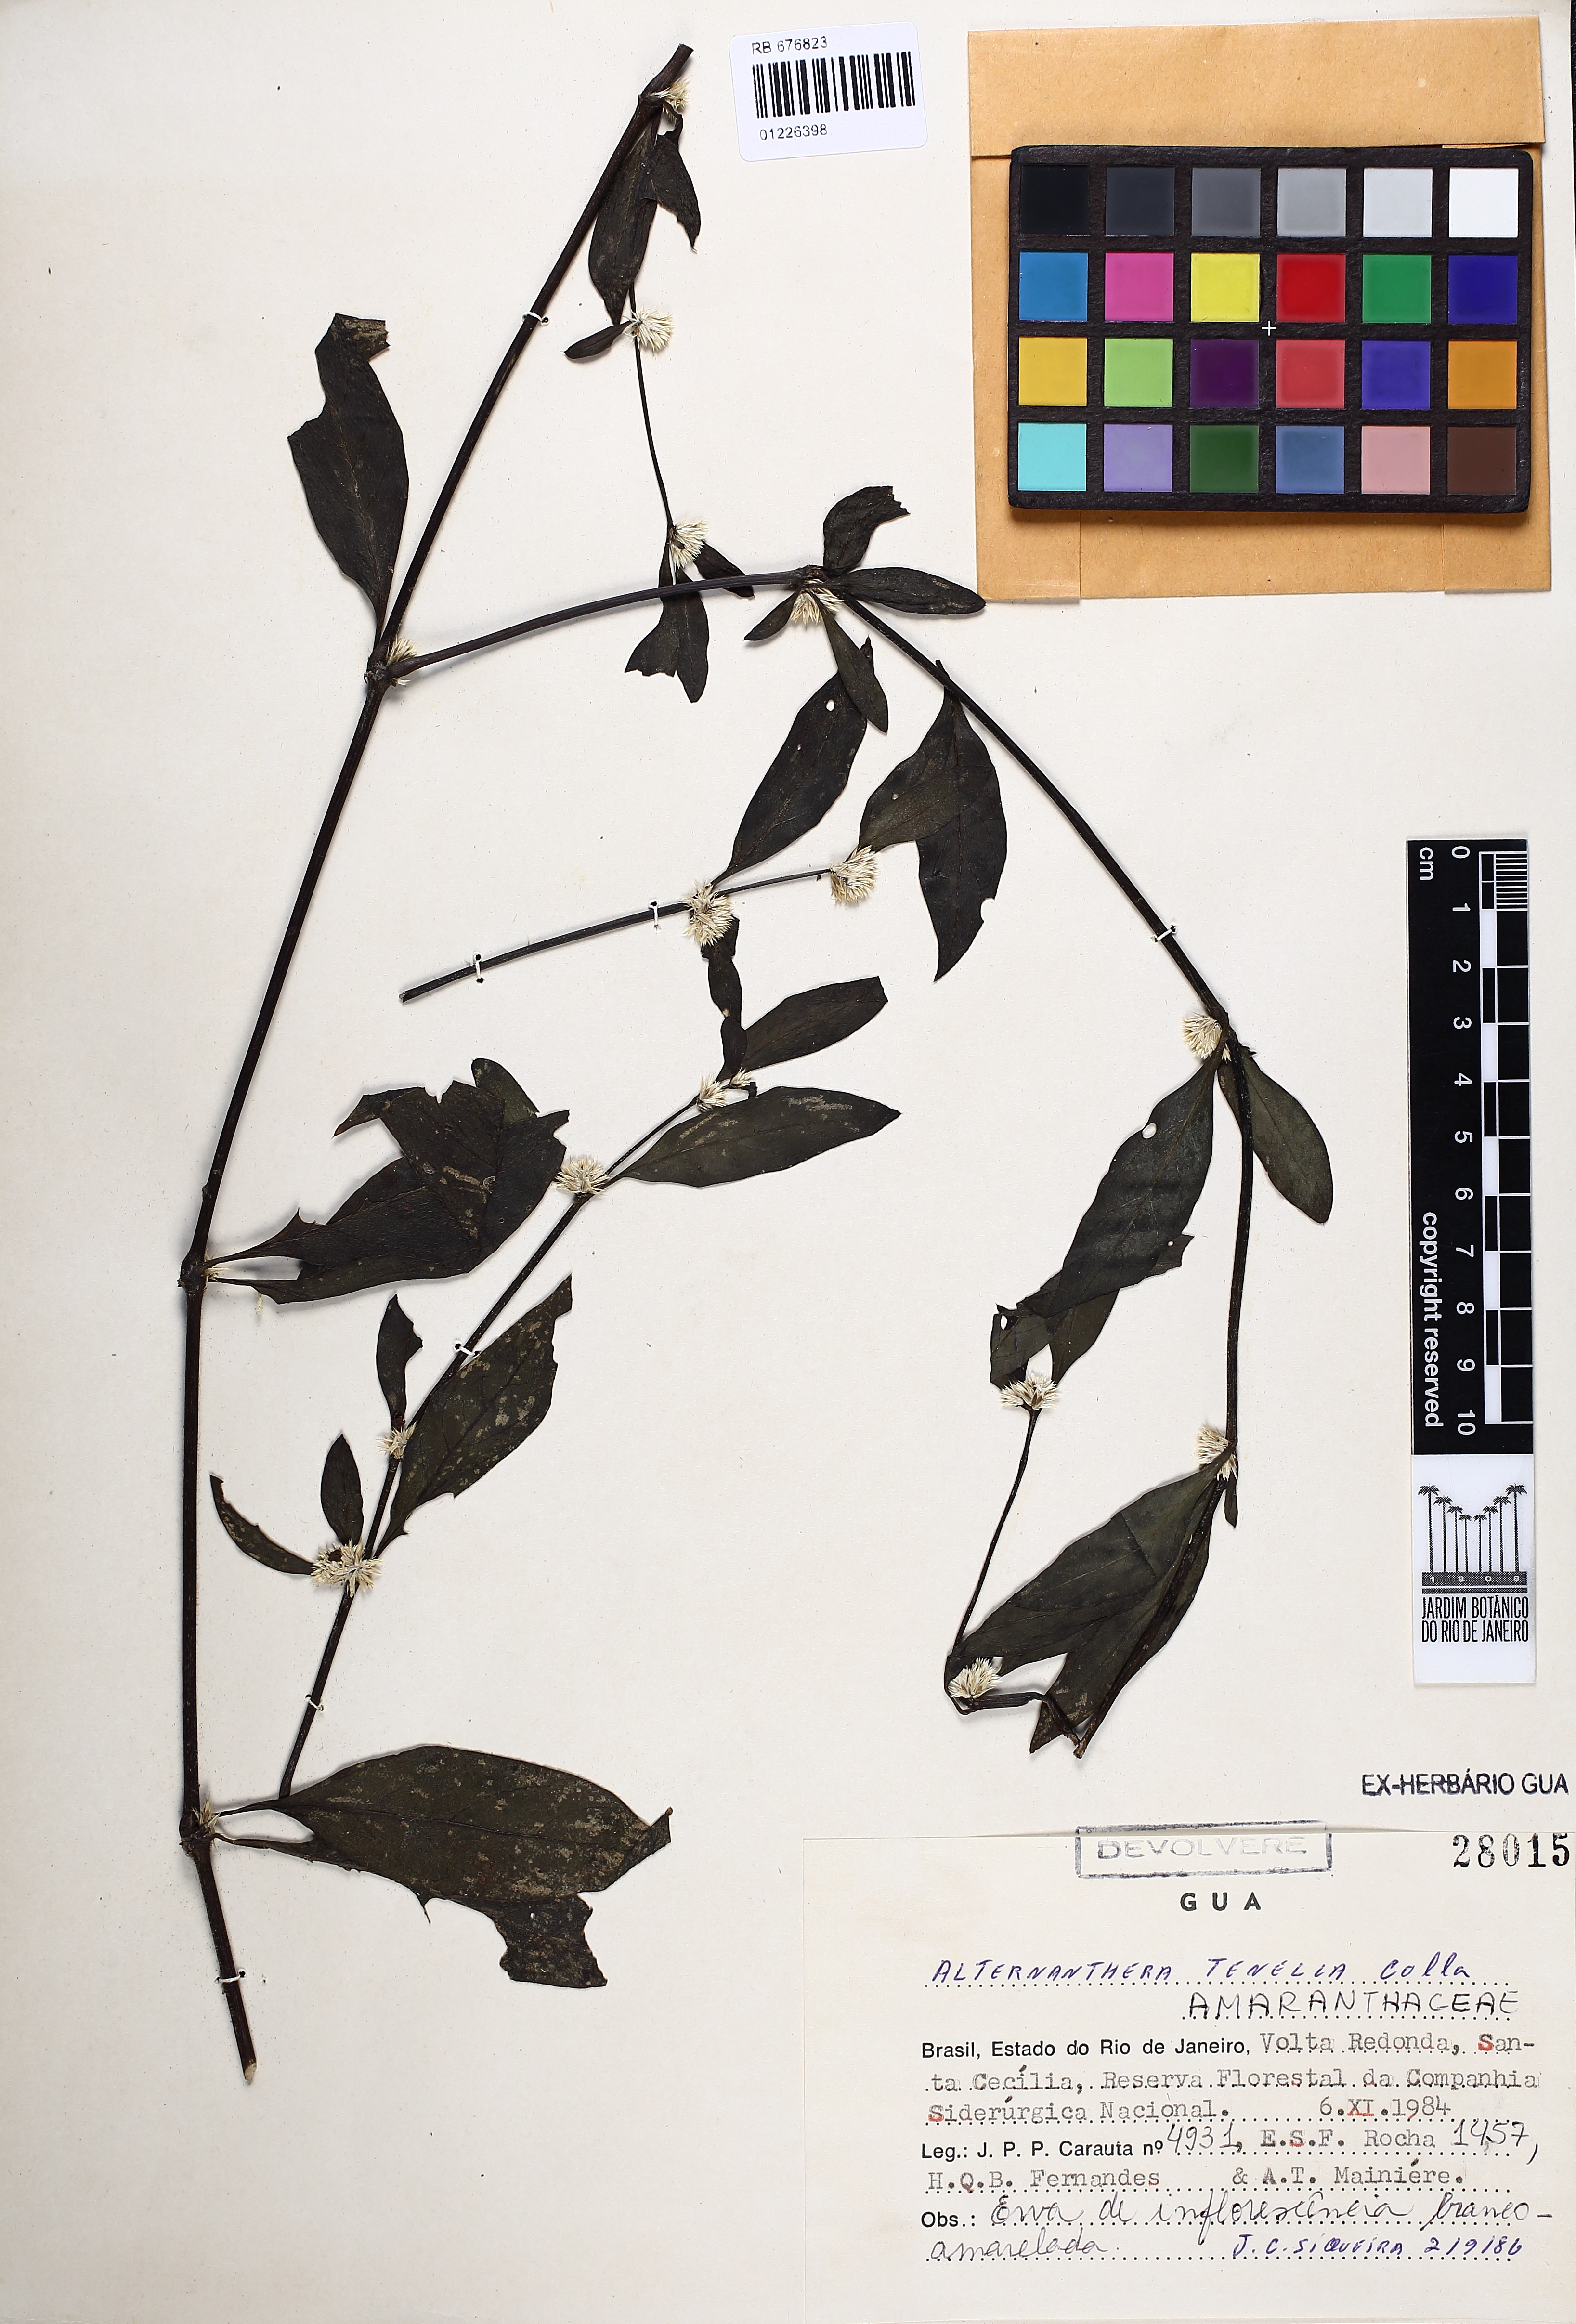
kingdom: Plantae
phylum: Tracheophyta
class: Magnoliopsida
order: Caryophyllales
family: Amaranthaceae
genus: Alternanthera
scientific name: Alternanthera ficoidea
